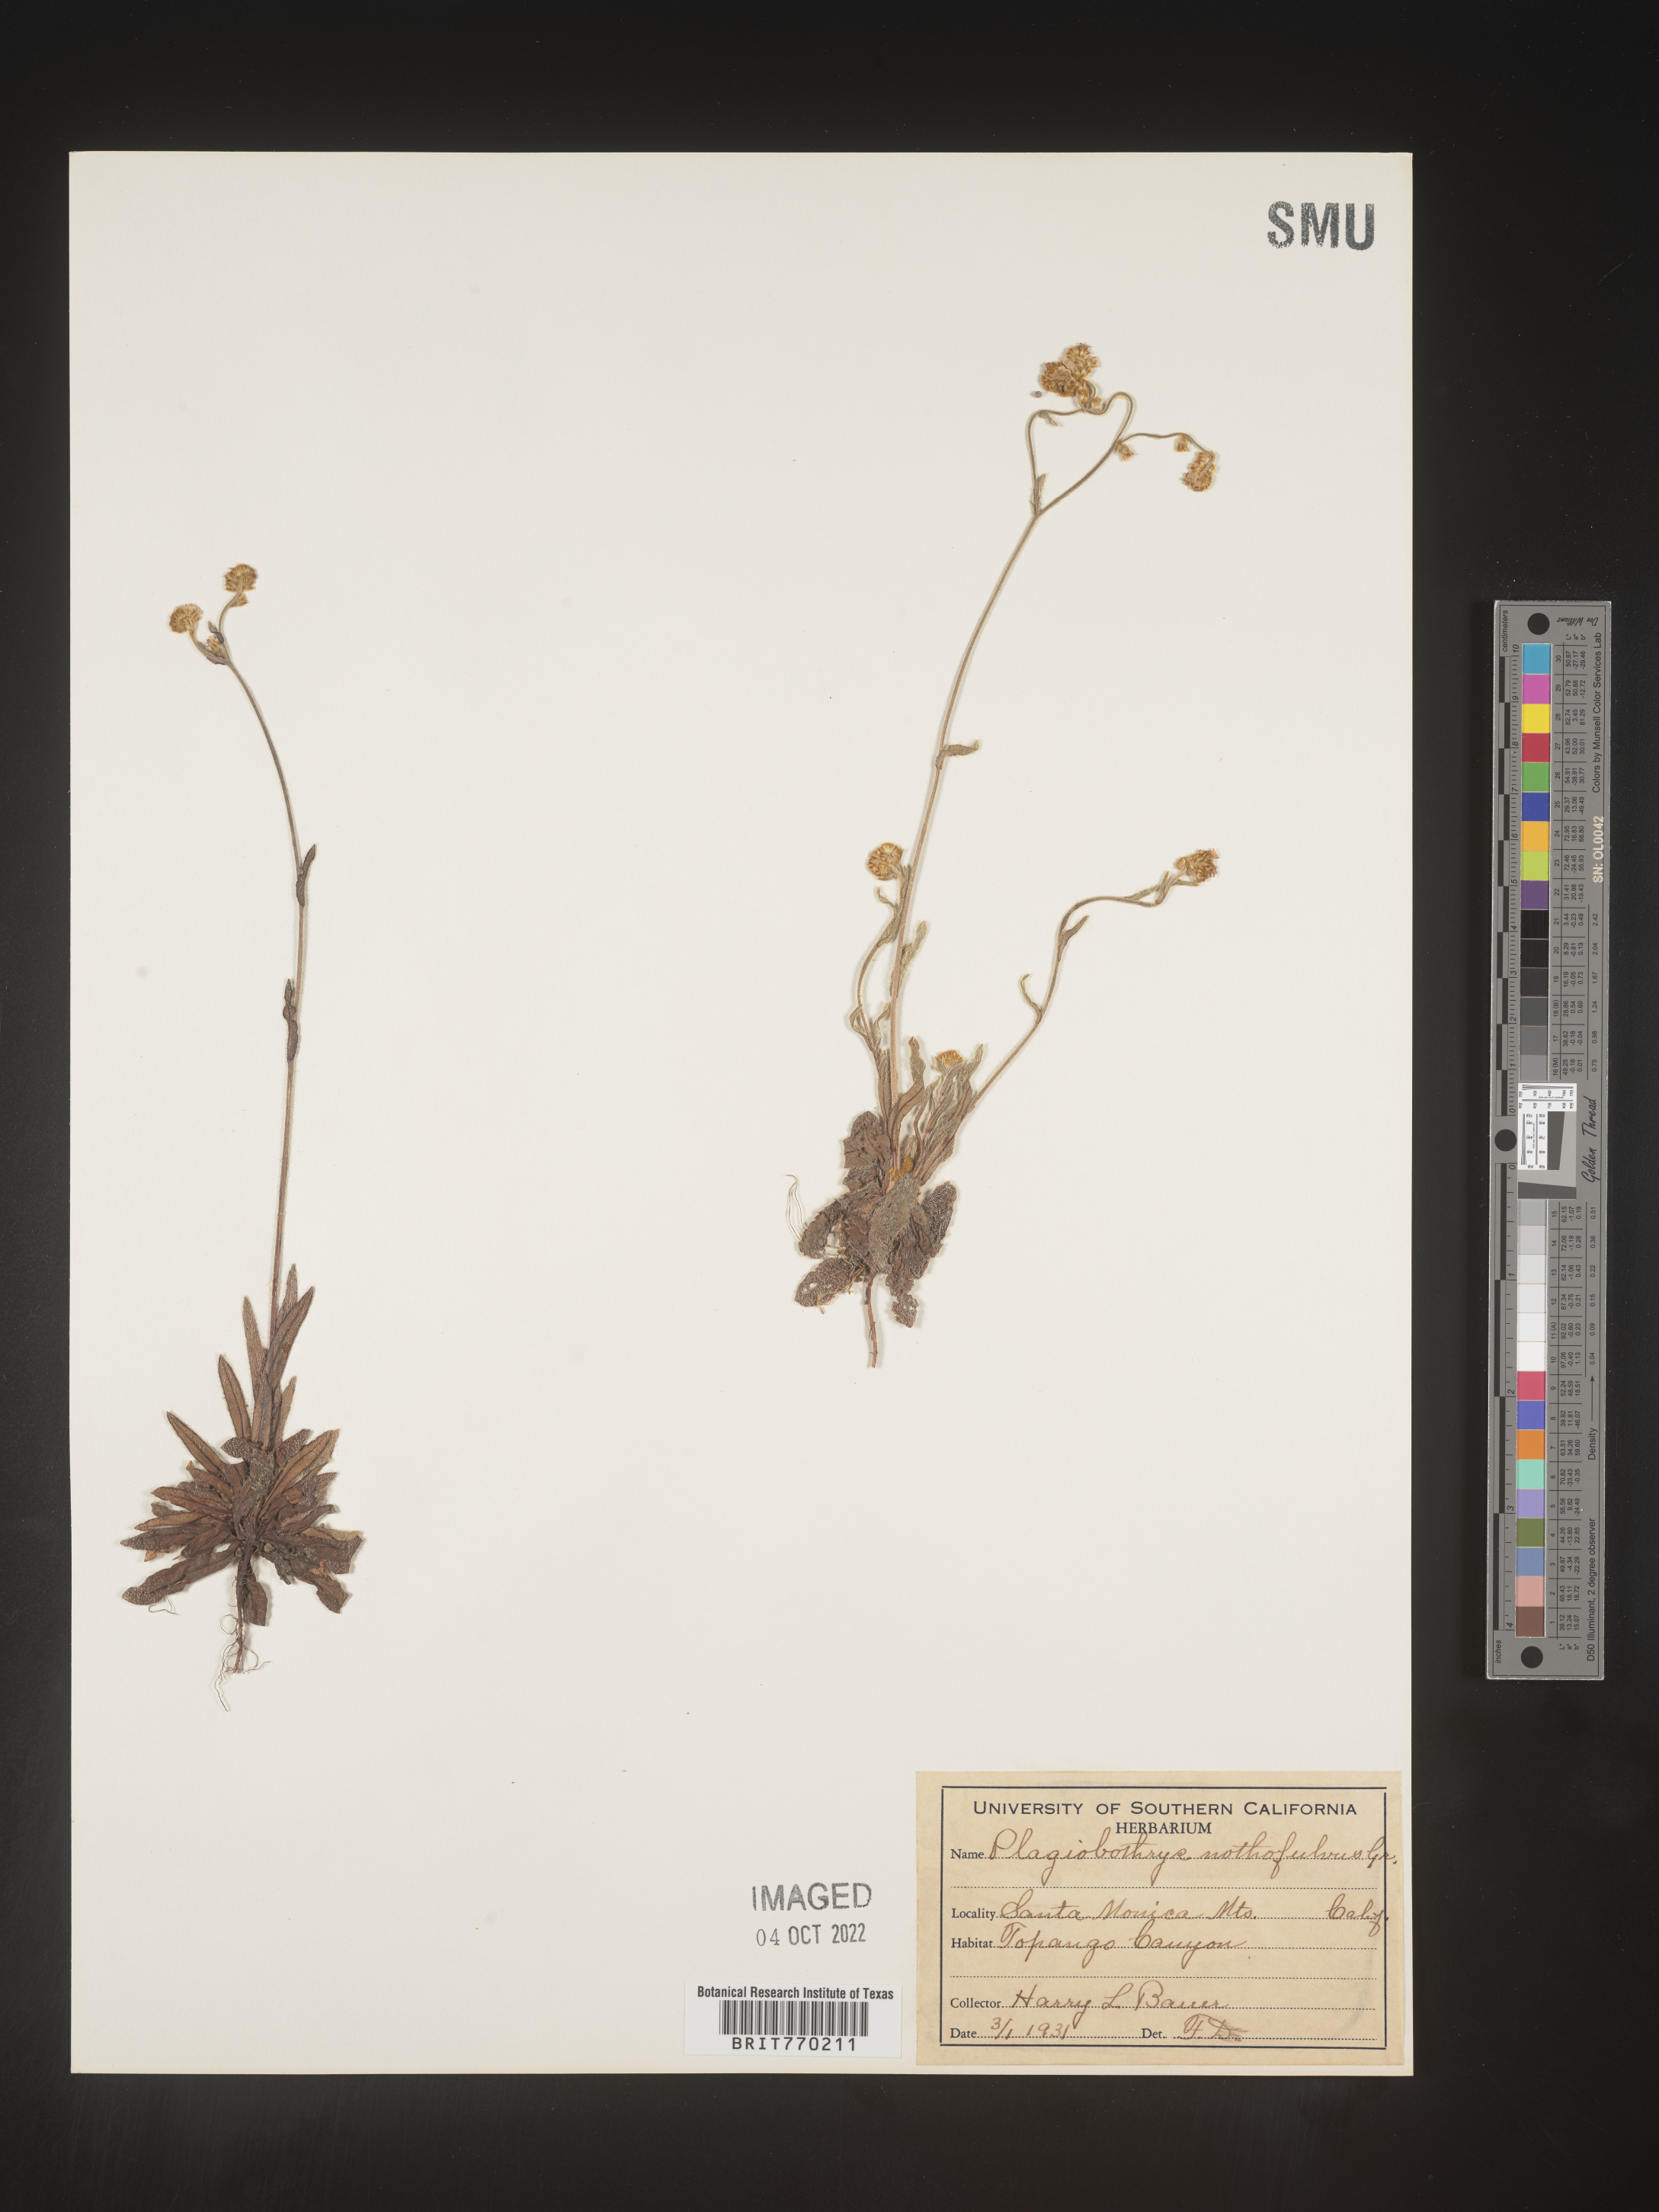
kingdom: Plantae
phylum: Tracheophyta
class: Magnoliopsida
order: Boraginales
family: Boraginaceae
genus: Plagiobothrys
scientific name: Plagiobothrys
